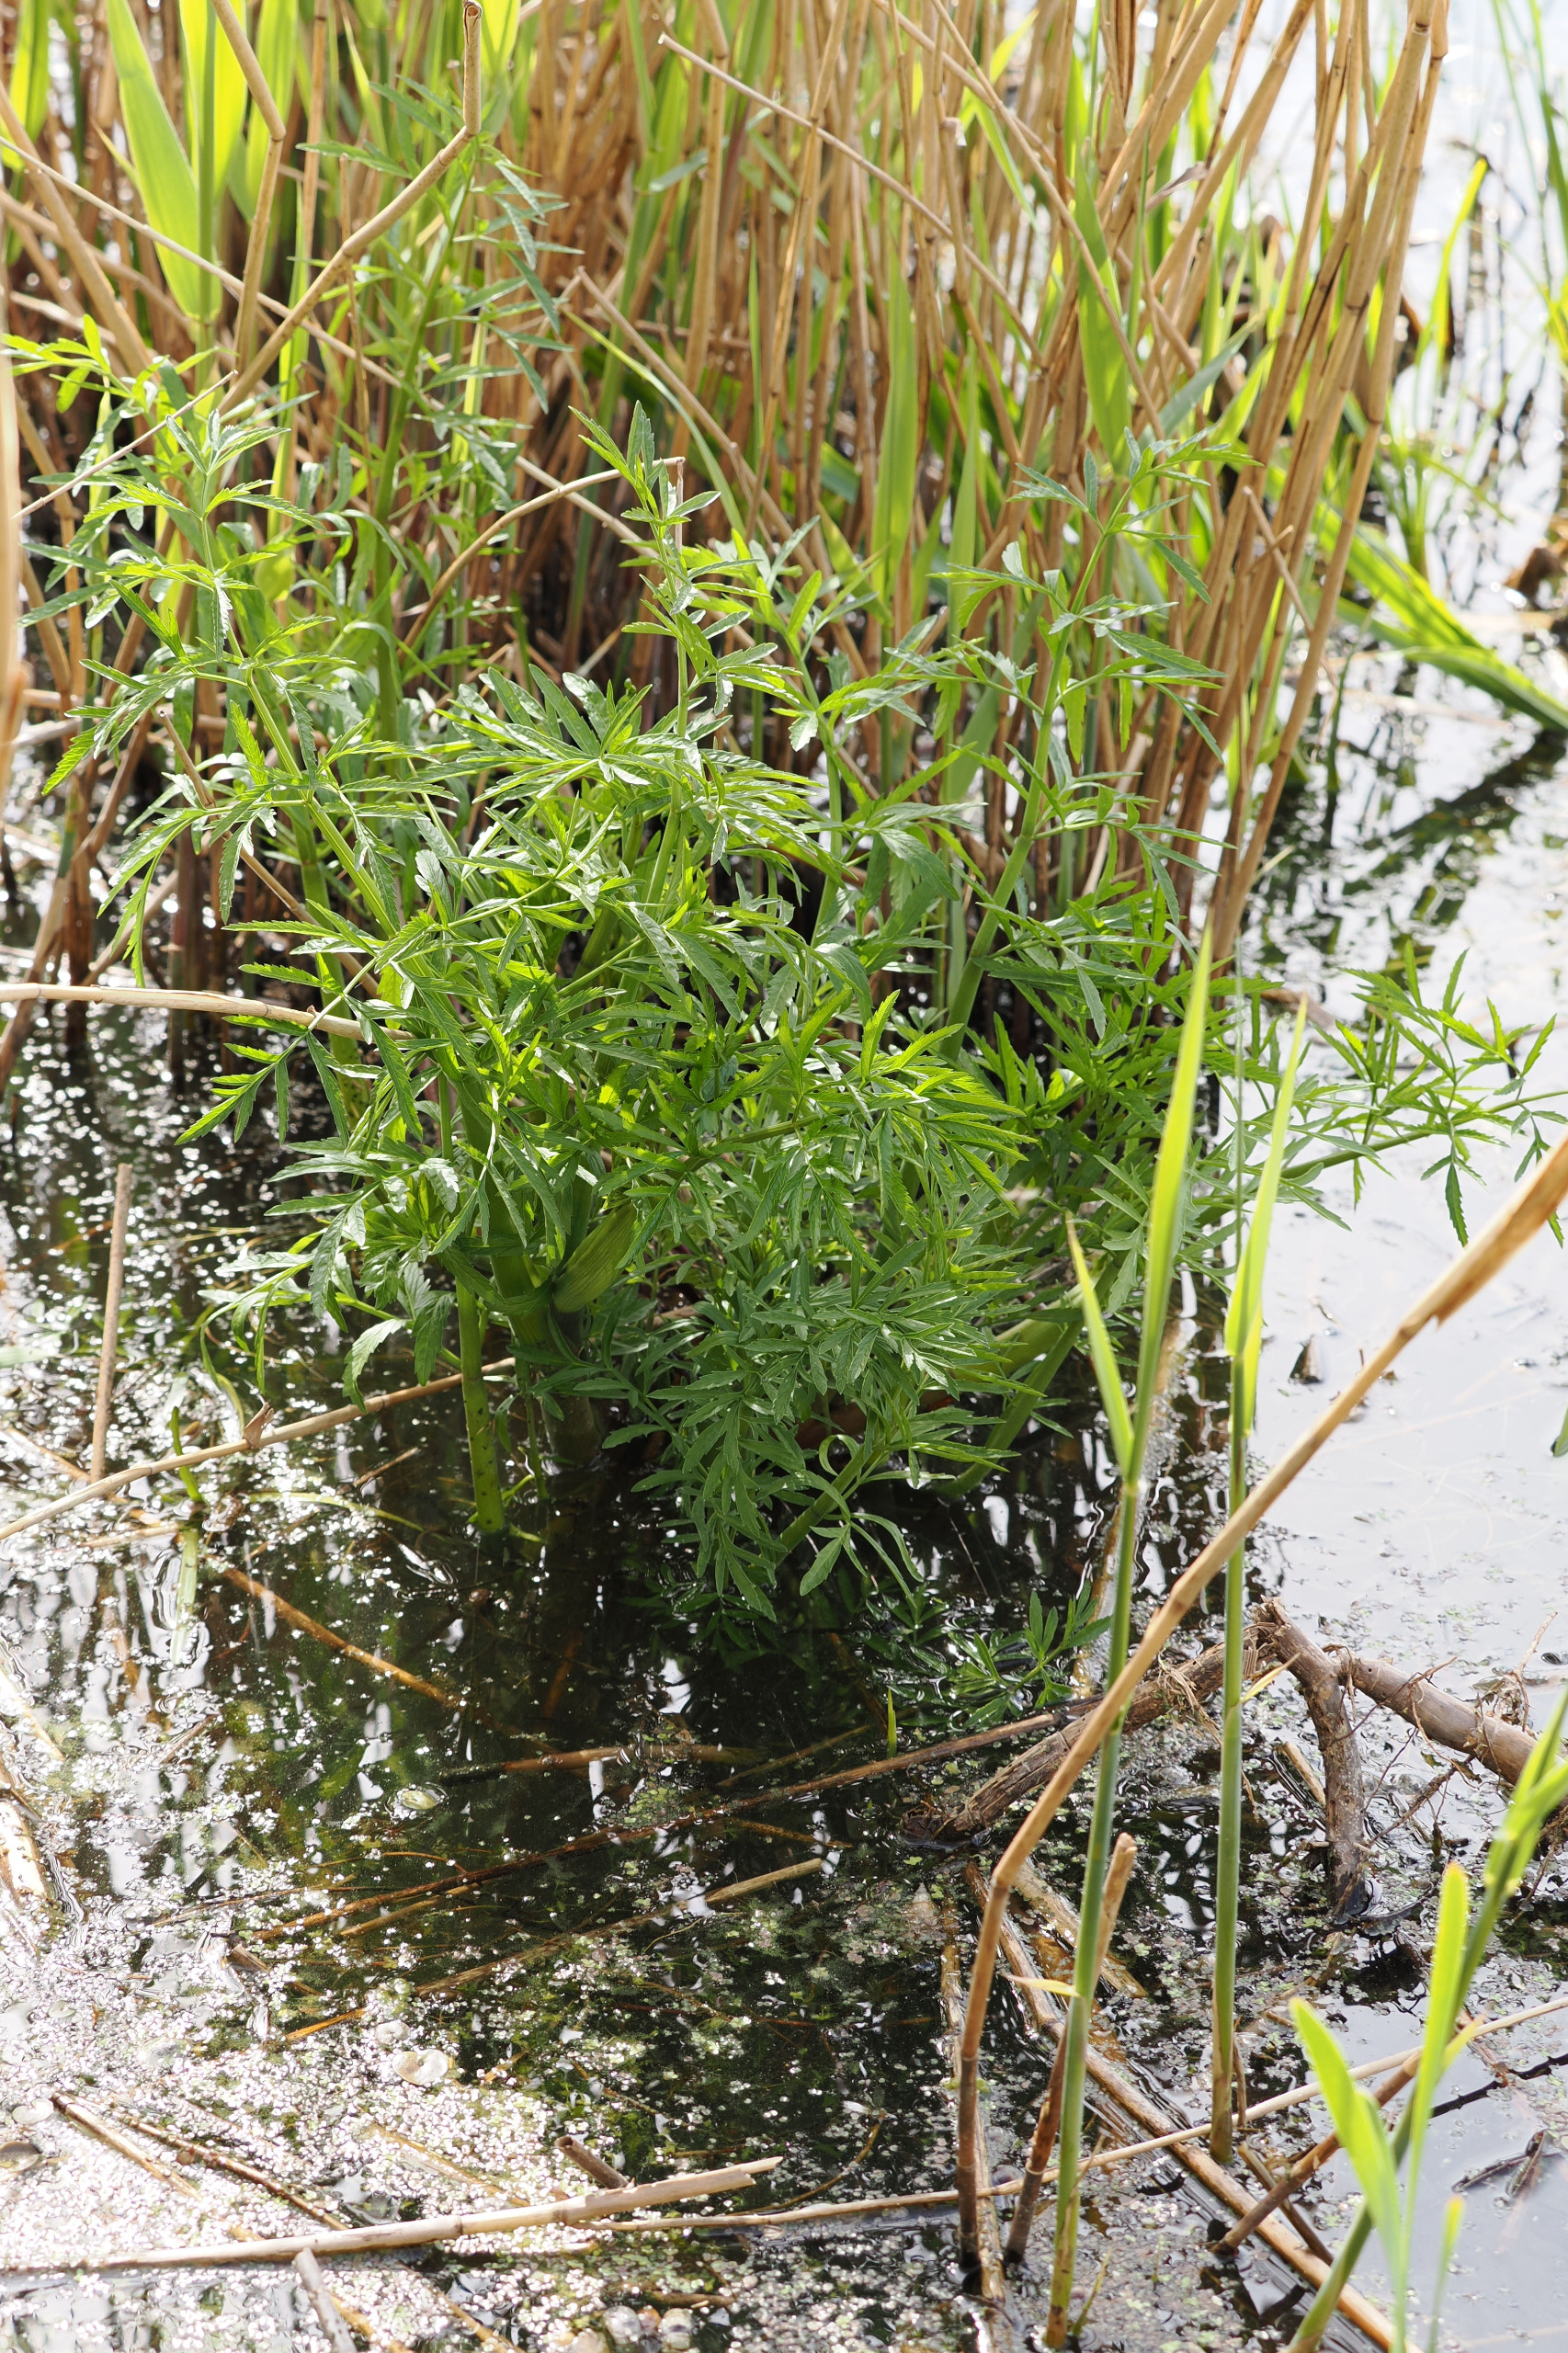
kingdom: Plantae
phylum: Tracheophyta
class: Magnoliopsida
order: Apiales
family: Apiaceae
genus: Cicuta
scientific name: Cicuta virosa
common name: Gifttyde
